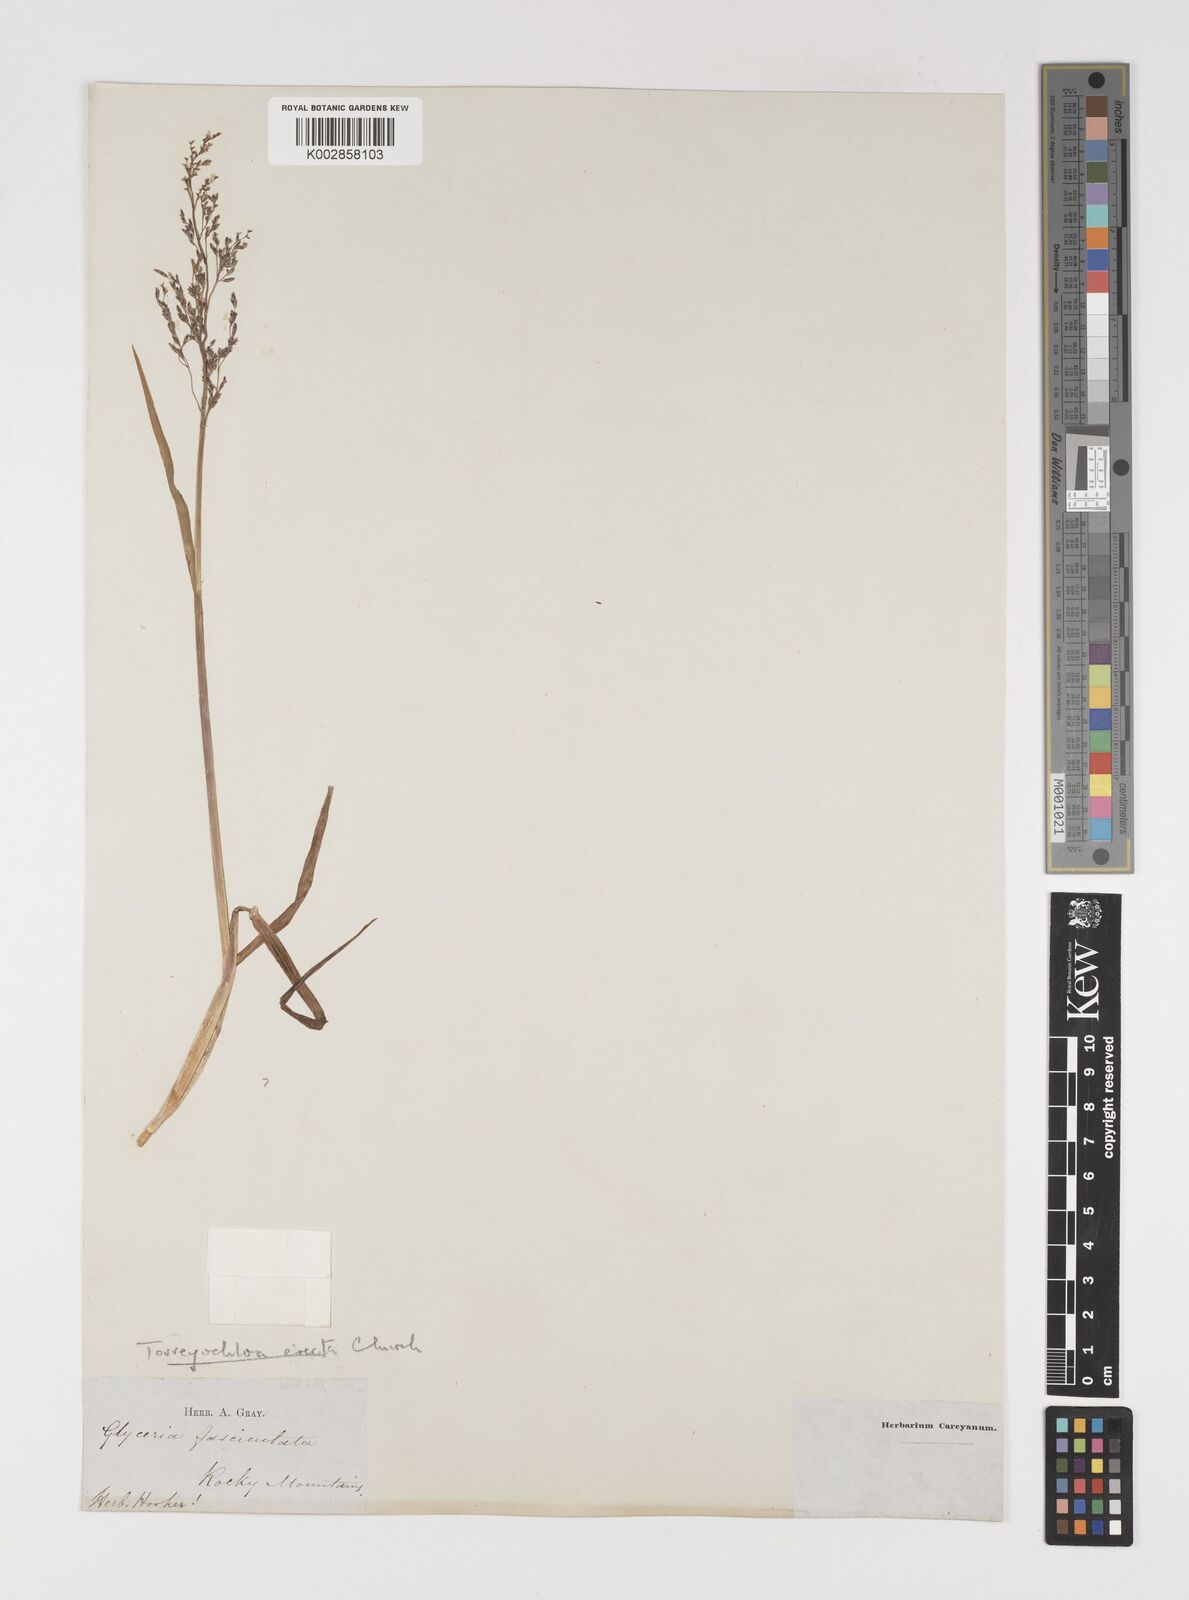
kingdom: Plantae
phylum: Tracheophyta
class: Liliopsida
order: Poales
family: Poaceae
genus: Torreyochloa
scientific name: Torreyochloa erecta
